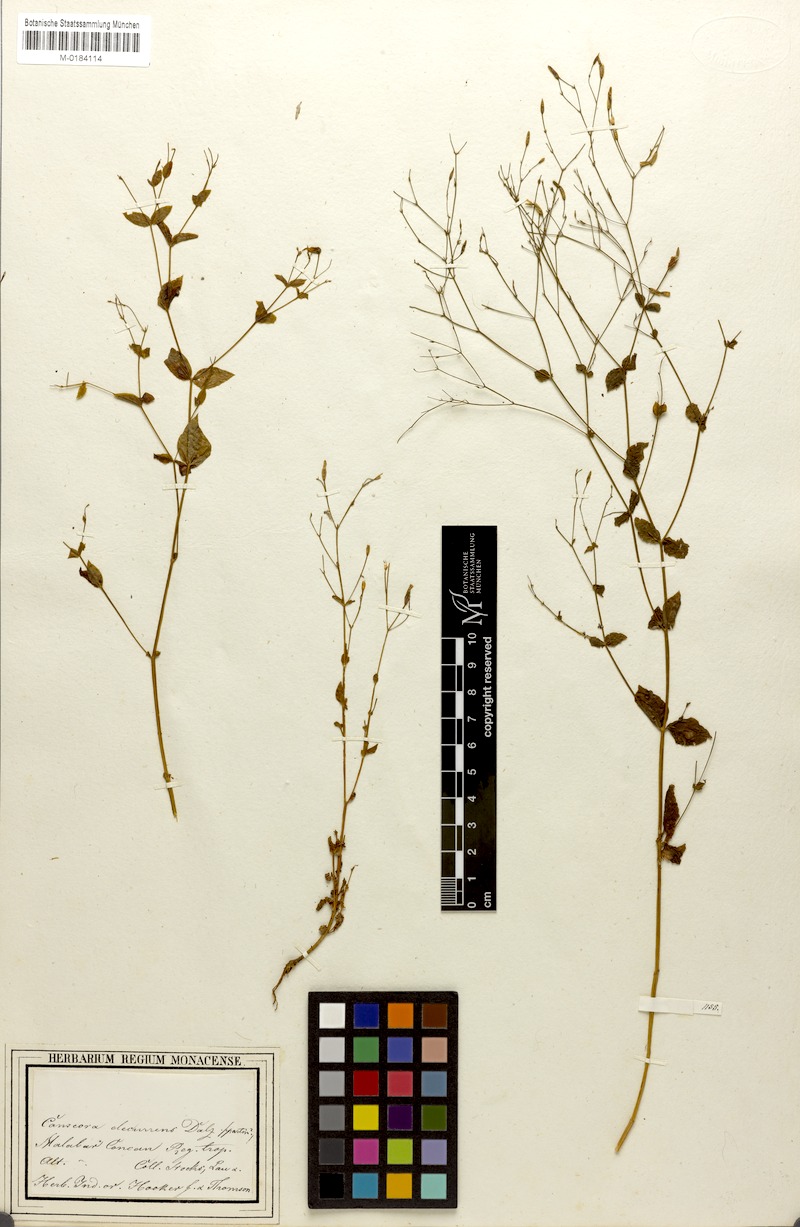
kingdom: Plantae
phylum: Tracheophyta
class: Magnoliopsida
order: Gentianales
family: Gentianaceae
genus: Canscora
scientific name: Canscora diffusa
